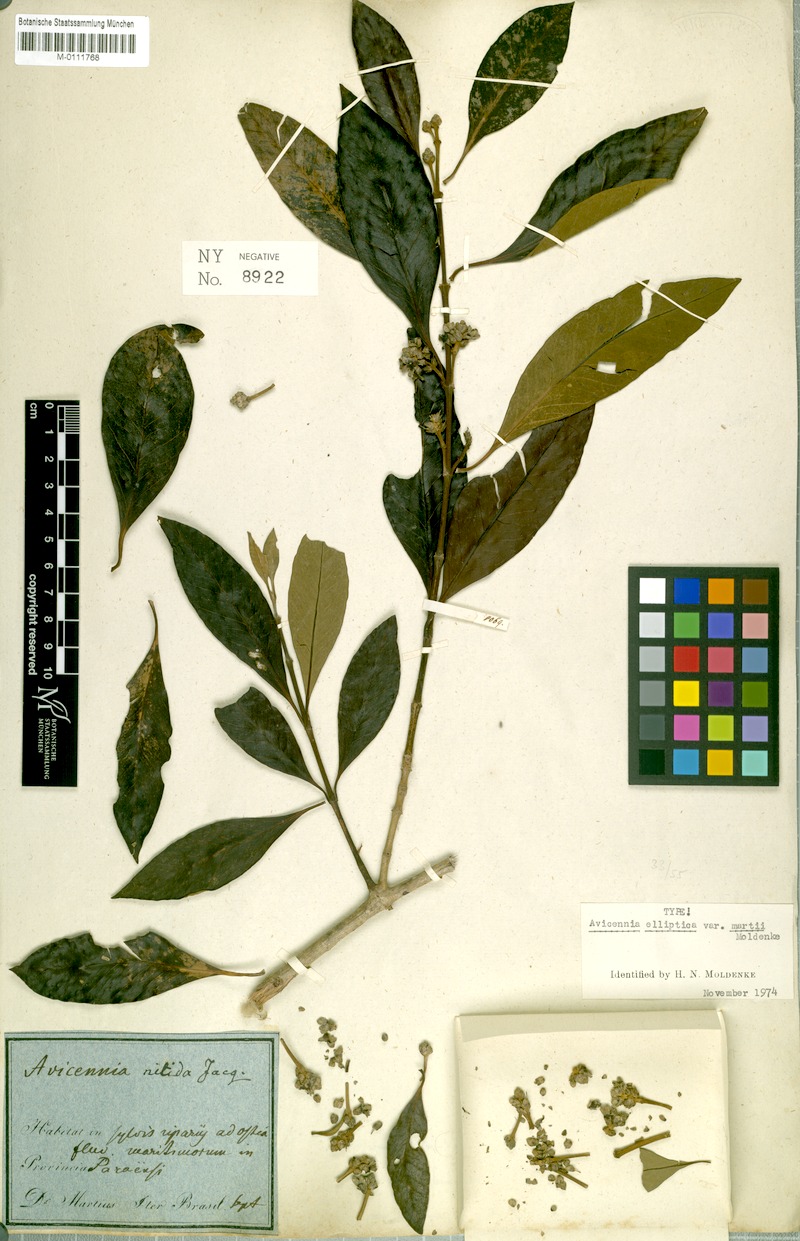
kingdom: Plantae
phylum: Tracheophyta
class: Magnoliopsida
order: Lamiales
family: Acanthaceae
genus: Avicennia
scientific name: Avicennia germinans
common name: Black mangrove
